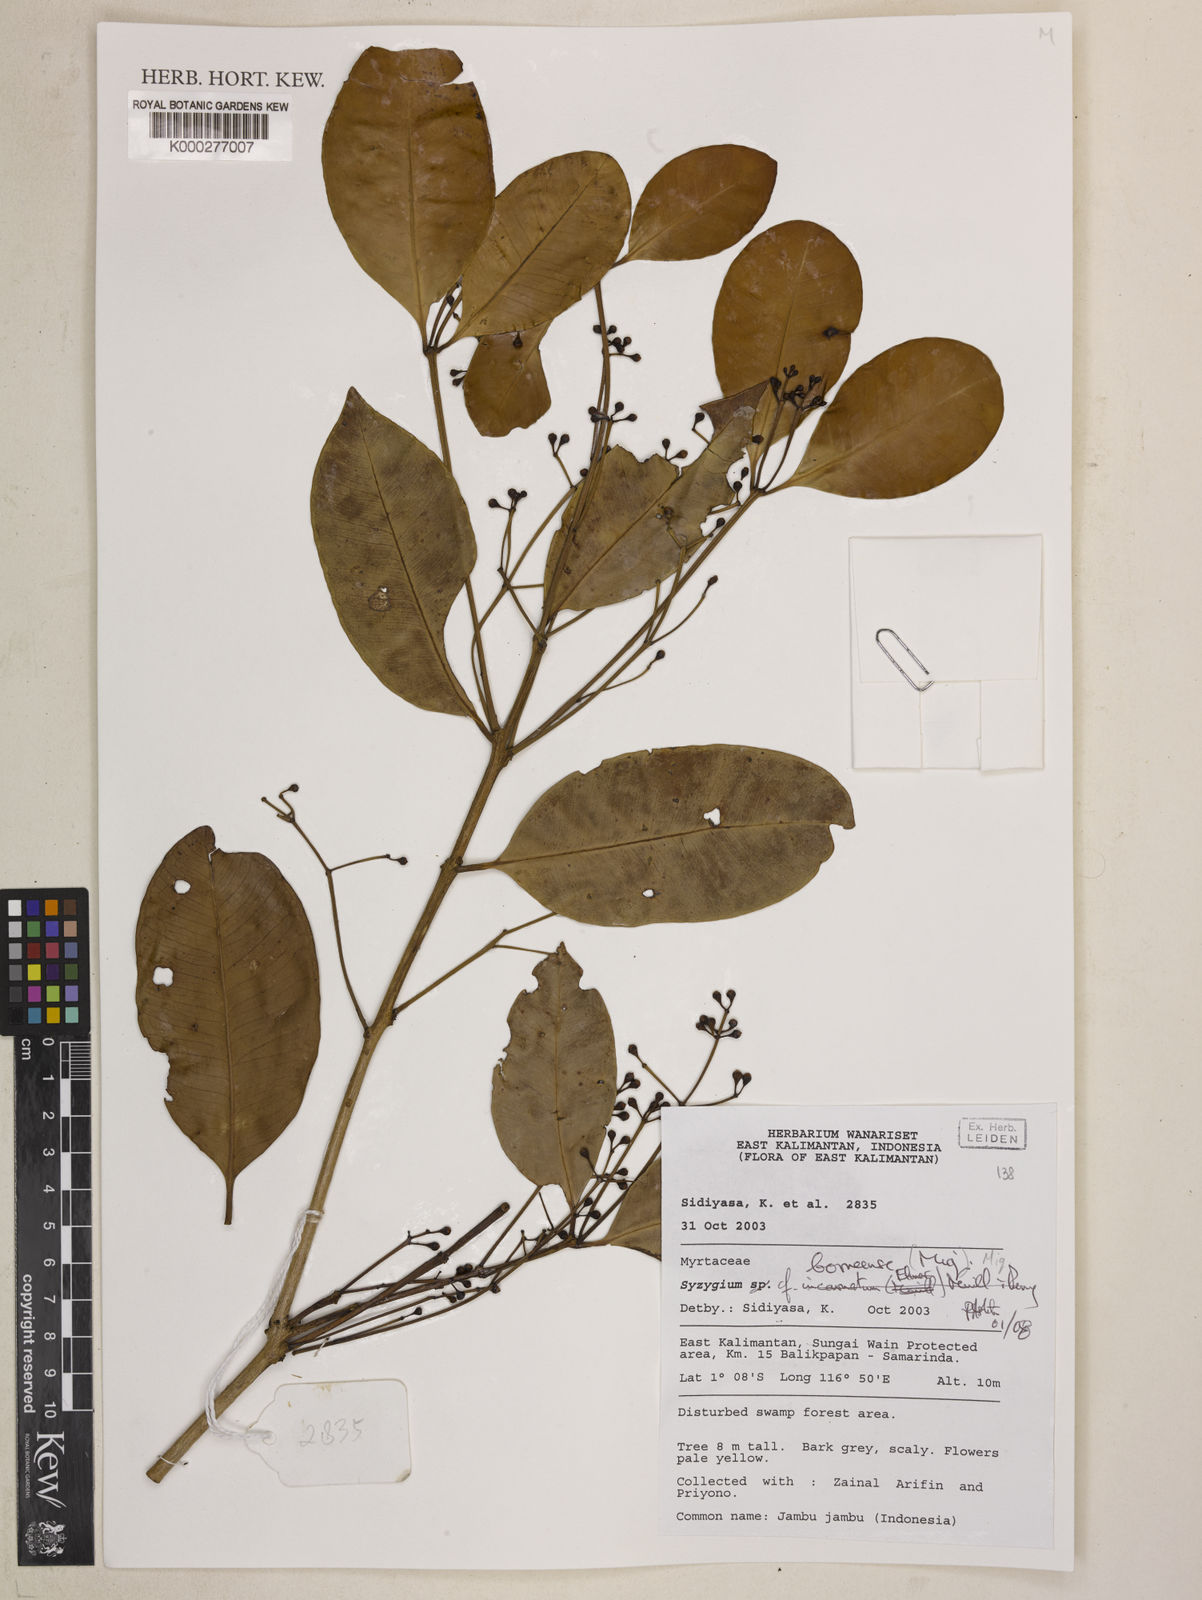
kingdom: Plantae
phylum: Tracheophyta
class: Magnoliopsida
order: Myrtales
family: Myrtaceae
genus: Syzygium
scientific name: Syzygium borneense
